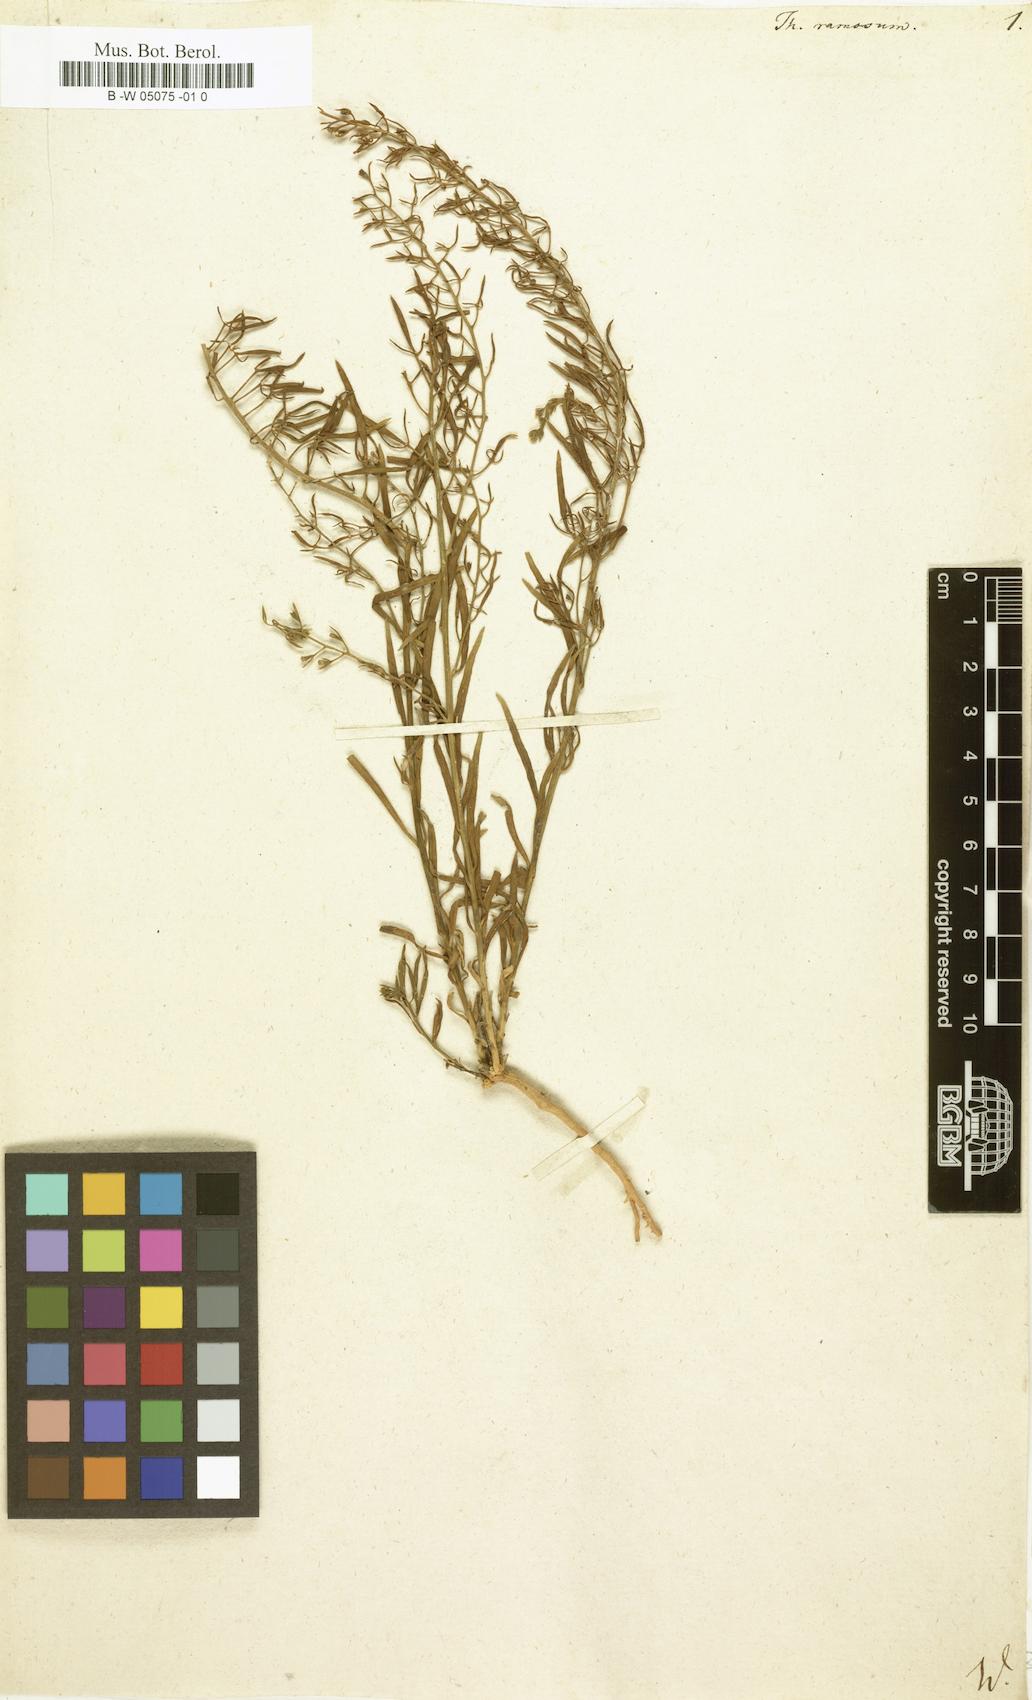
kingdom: Plantae
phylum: Tracheophyta
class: Magnoliopsida
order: Santalales
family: Thesiaceae
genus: Thesium
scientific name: Thesium ramosum
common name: Field thesium
